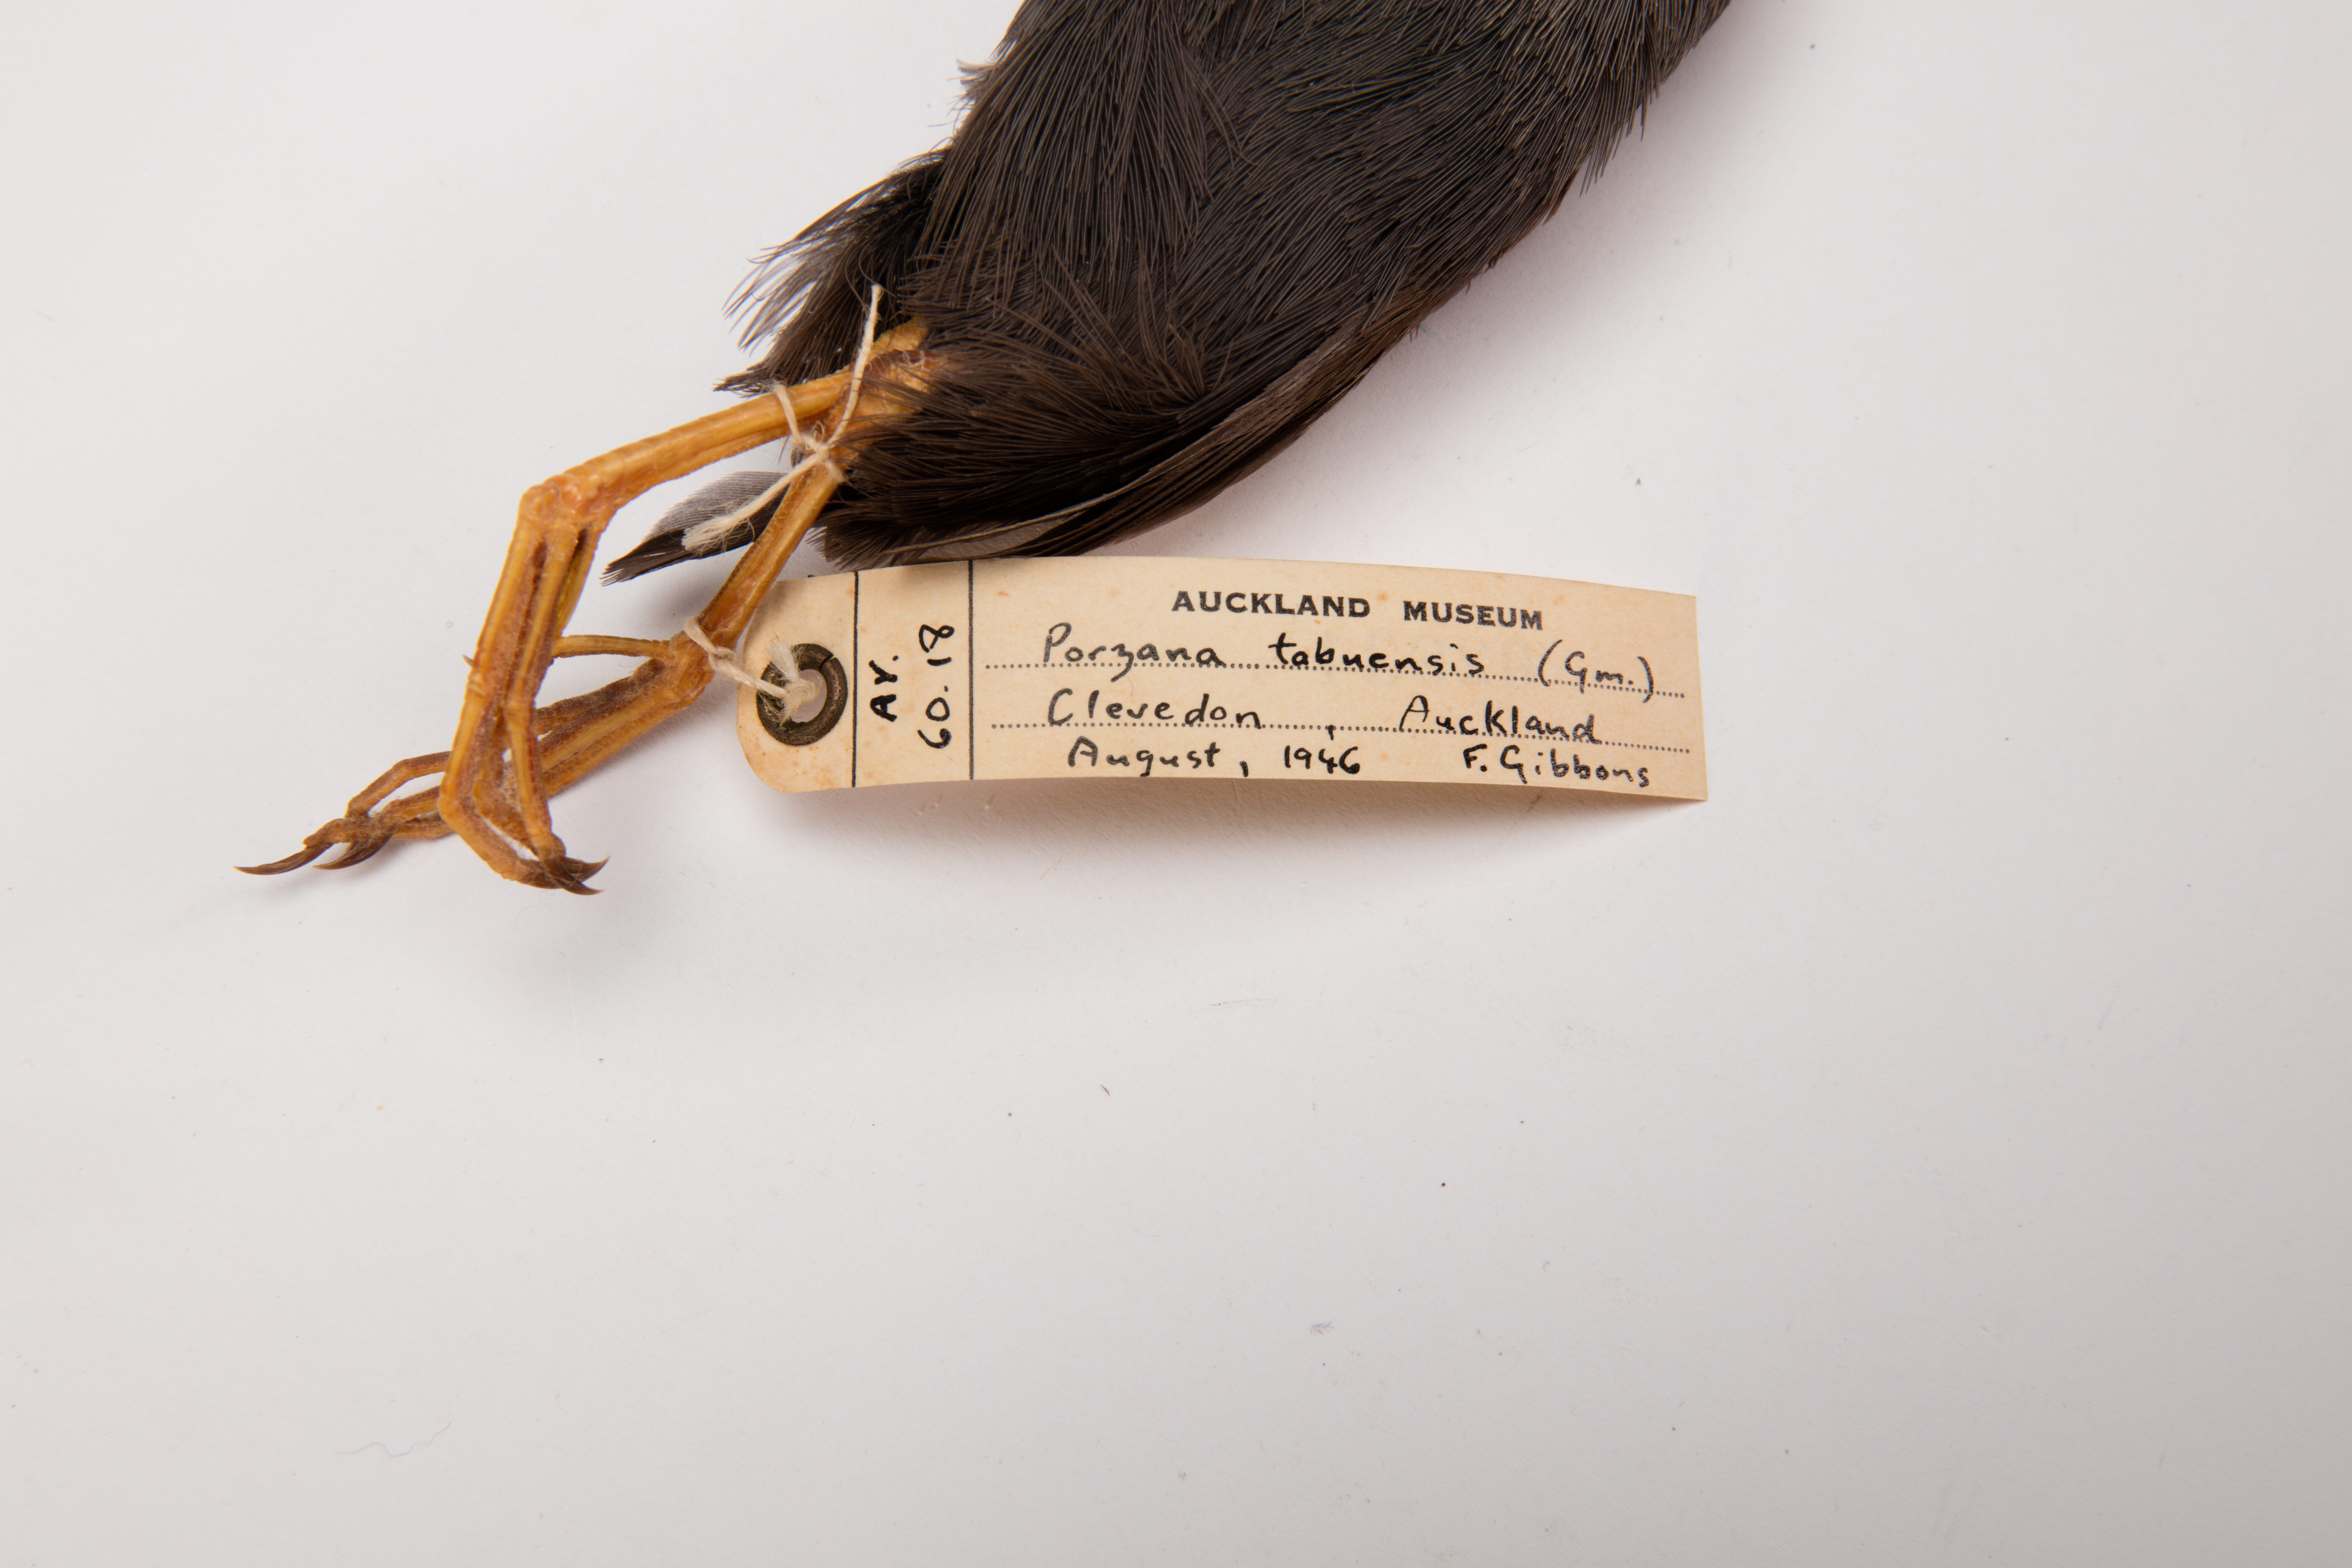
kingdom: Animalia
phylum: Chordata
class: Aves
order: Gruiformes
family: Rallidae
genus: Porzana
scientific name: Porzana tabuensis
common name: Spotless crake
